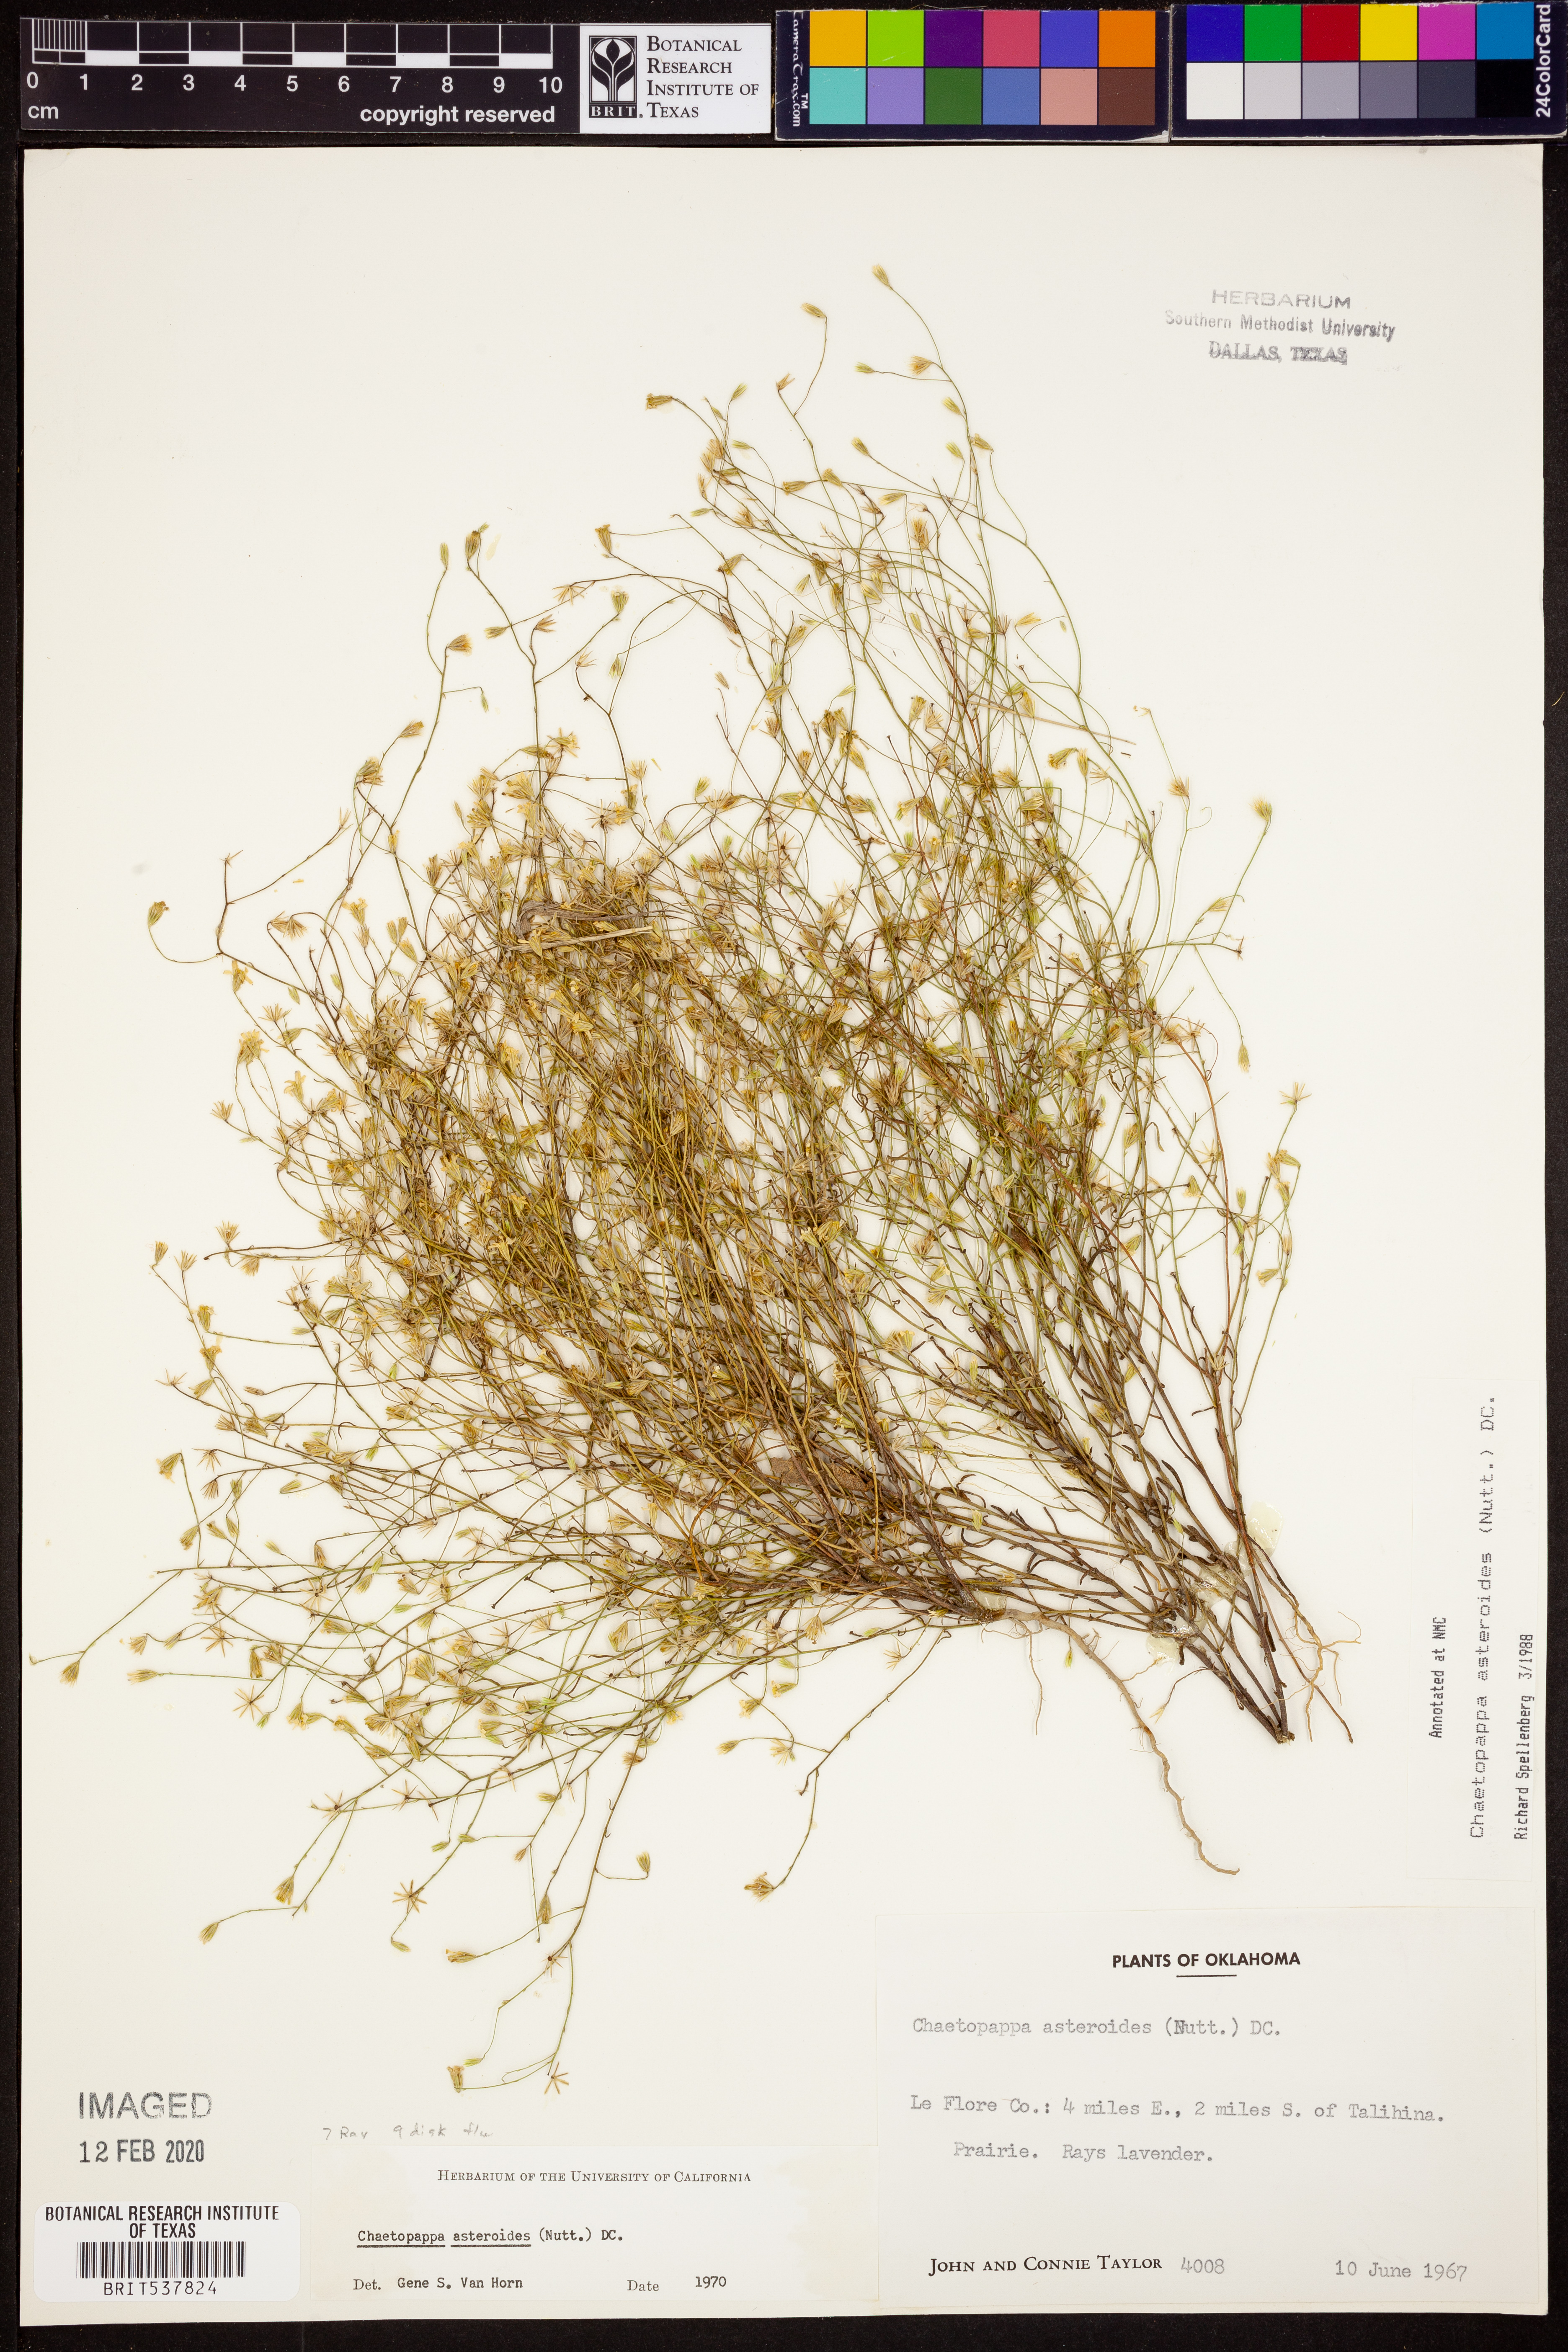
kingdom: Plantae
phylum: Tracheophyta
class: Magnoliopsida
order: Asterales
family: Asteraceae
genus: Chaetopappa
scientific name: Chaetopappa asteroides
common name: Tiny lazy daisy
